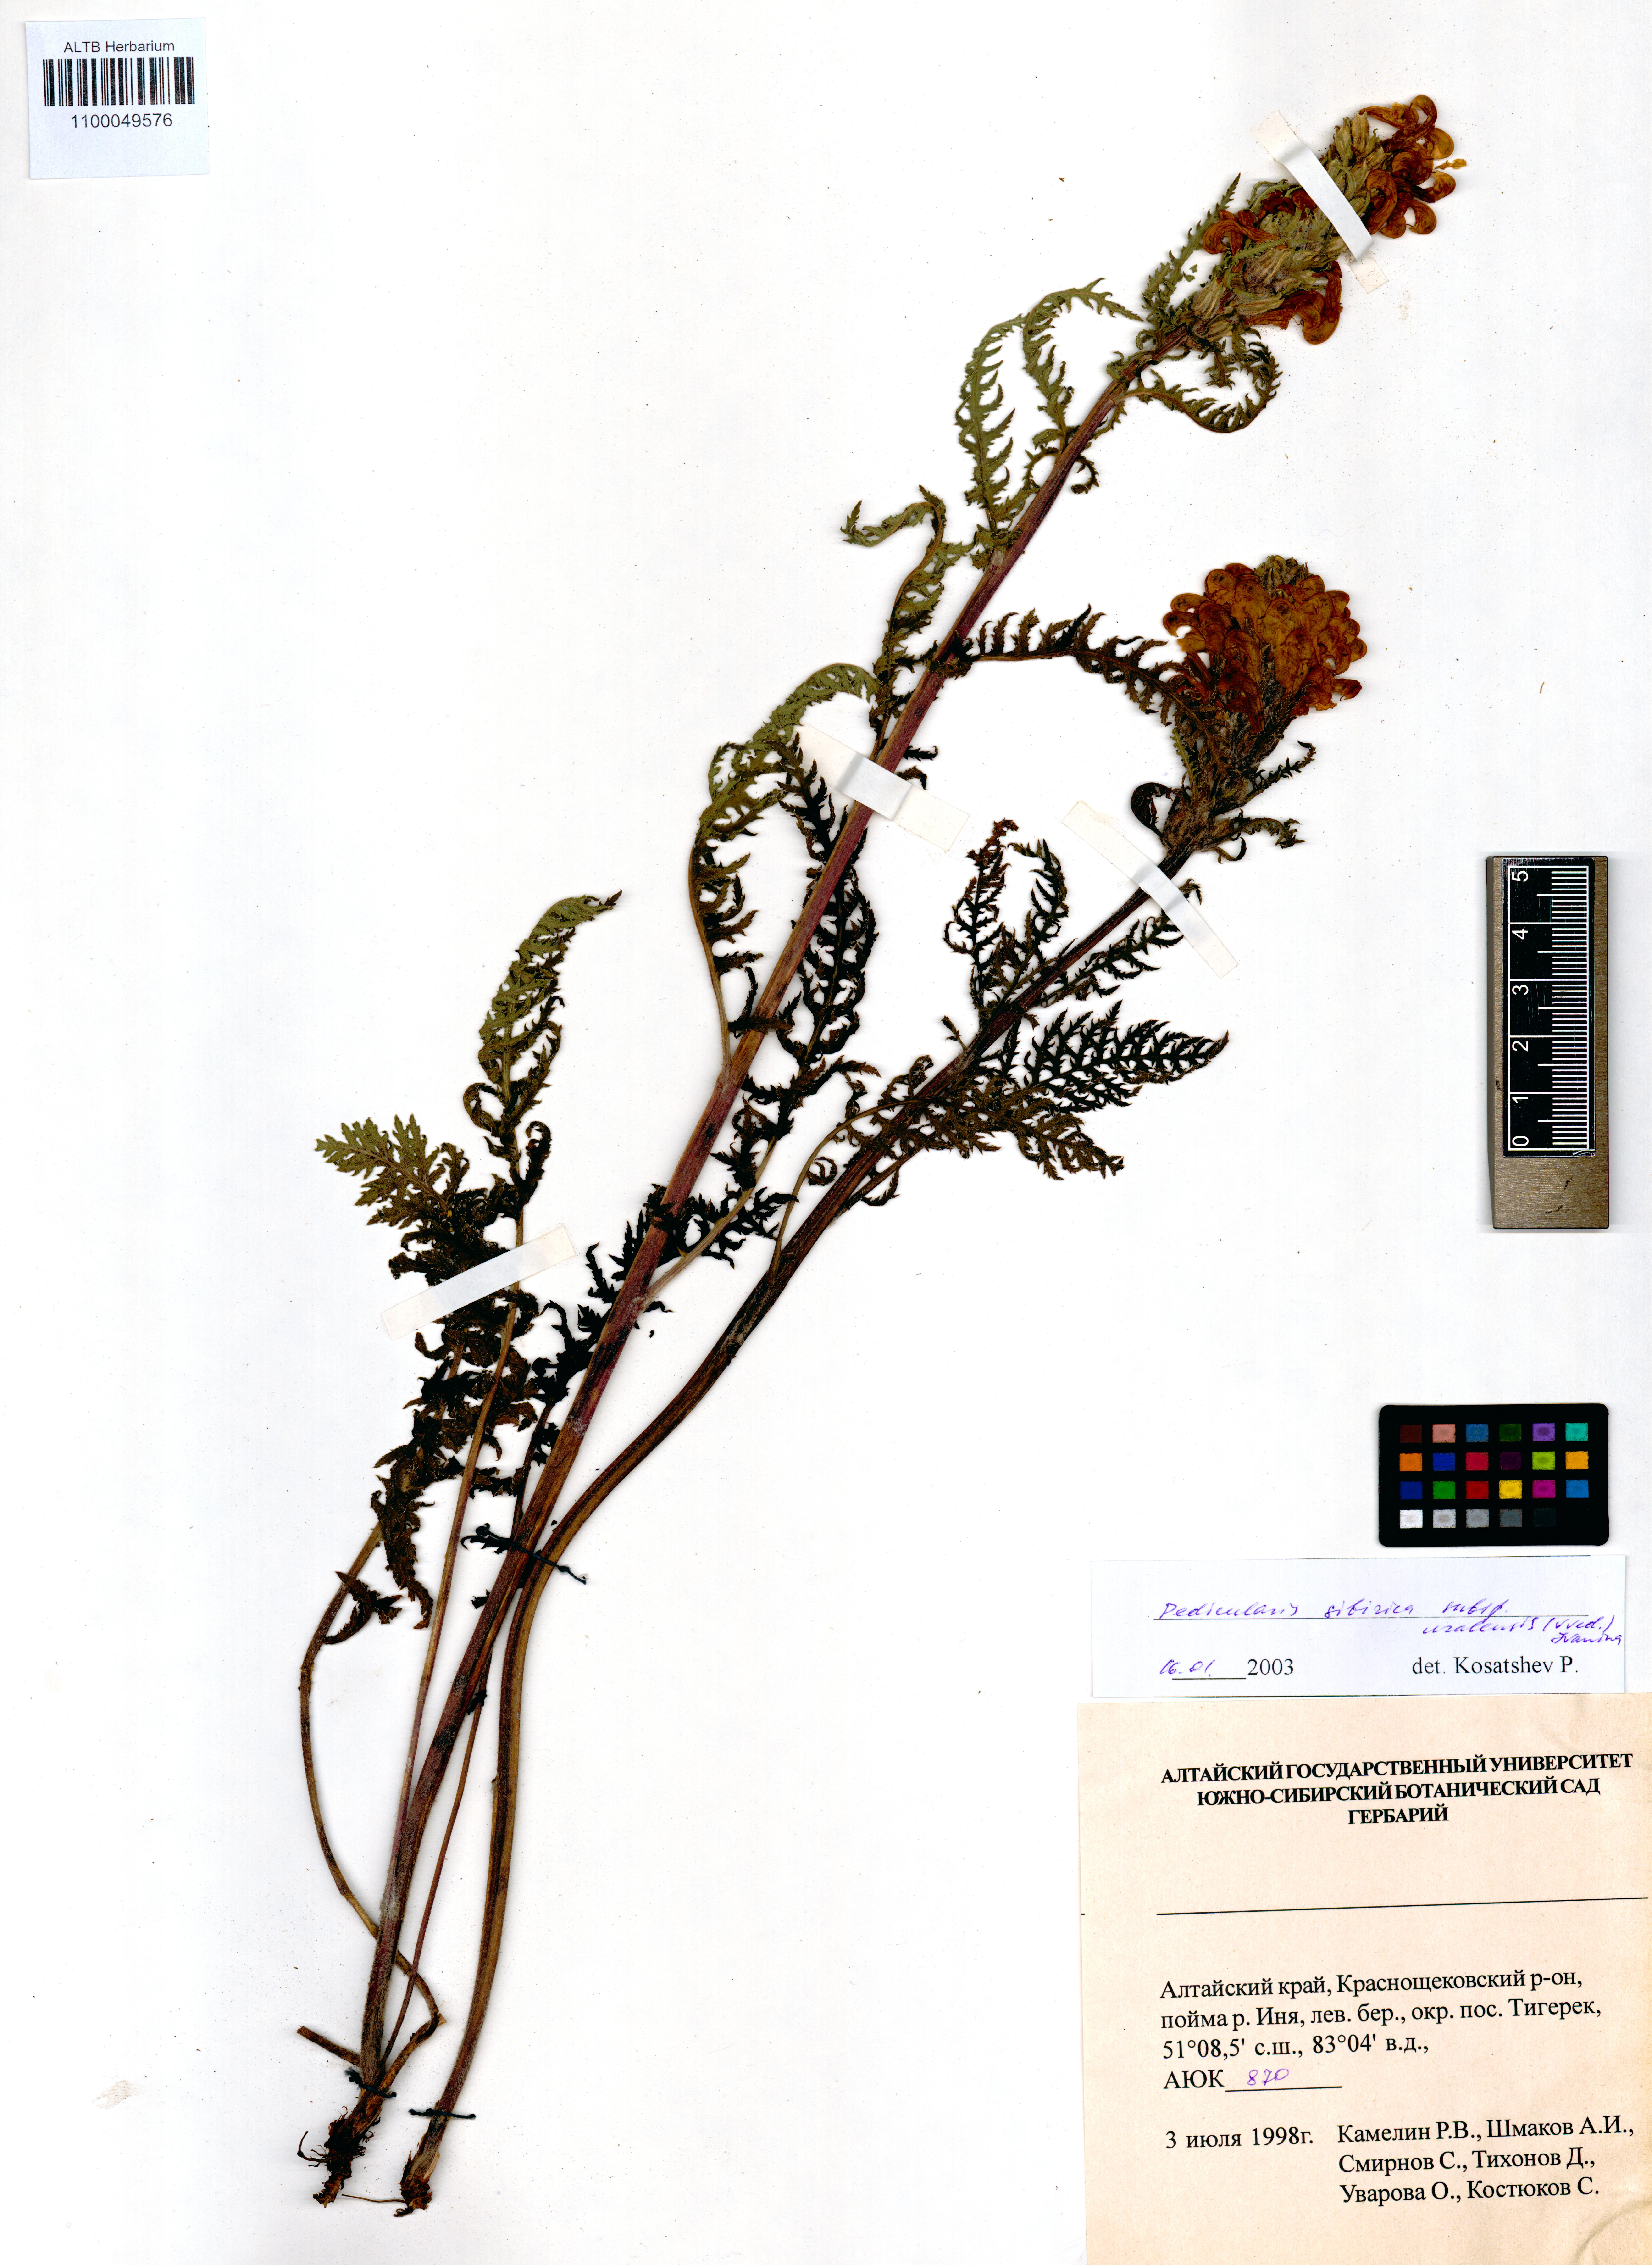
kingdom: Plantae
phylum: Tracheophyta
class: Magnoliopsida
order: Lamiales
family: Orobanchaceae
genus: Pedicularis
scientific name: Pedicularis uralensis
